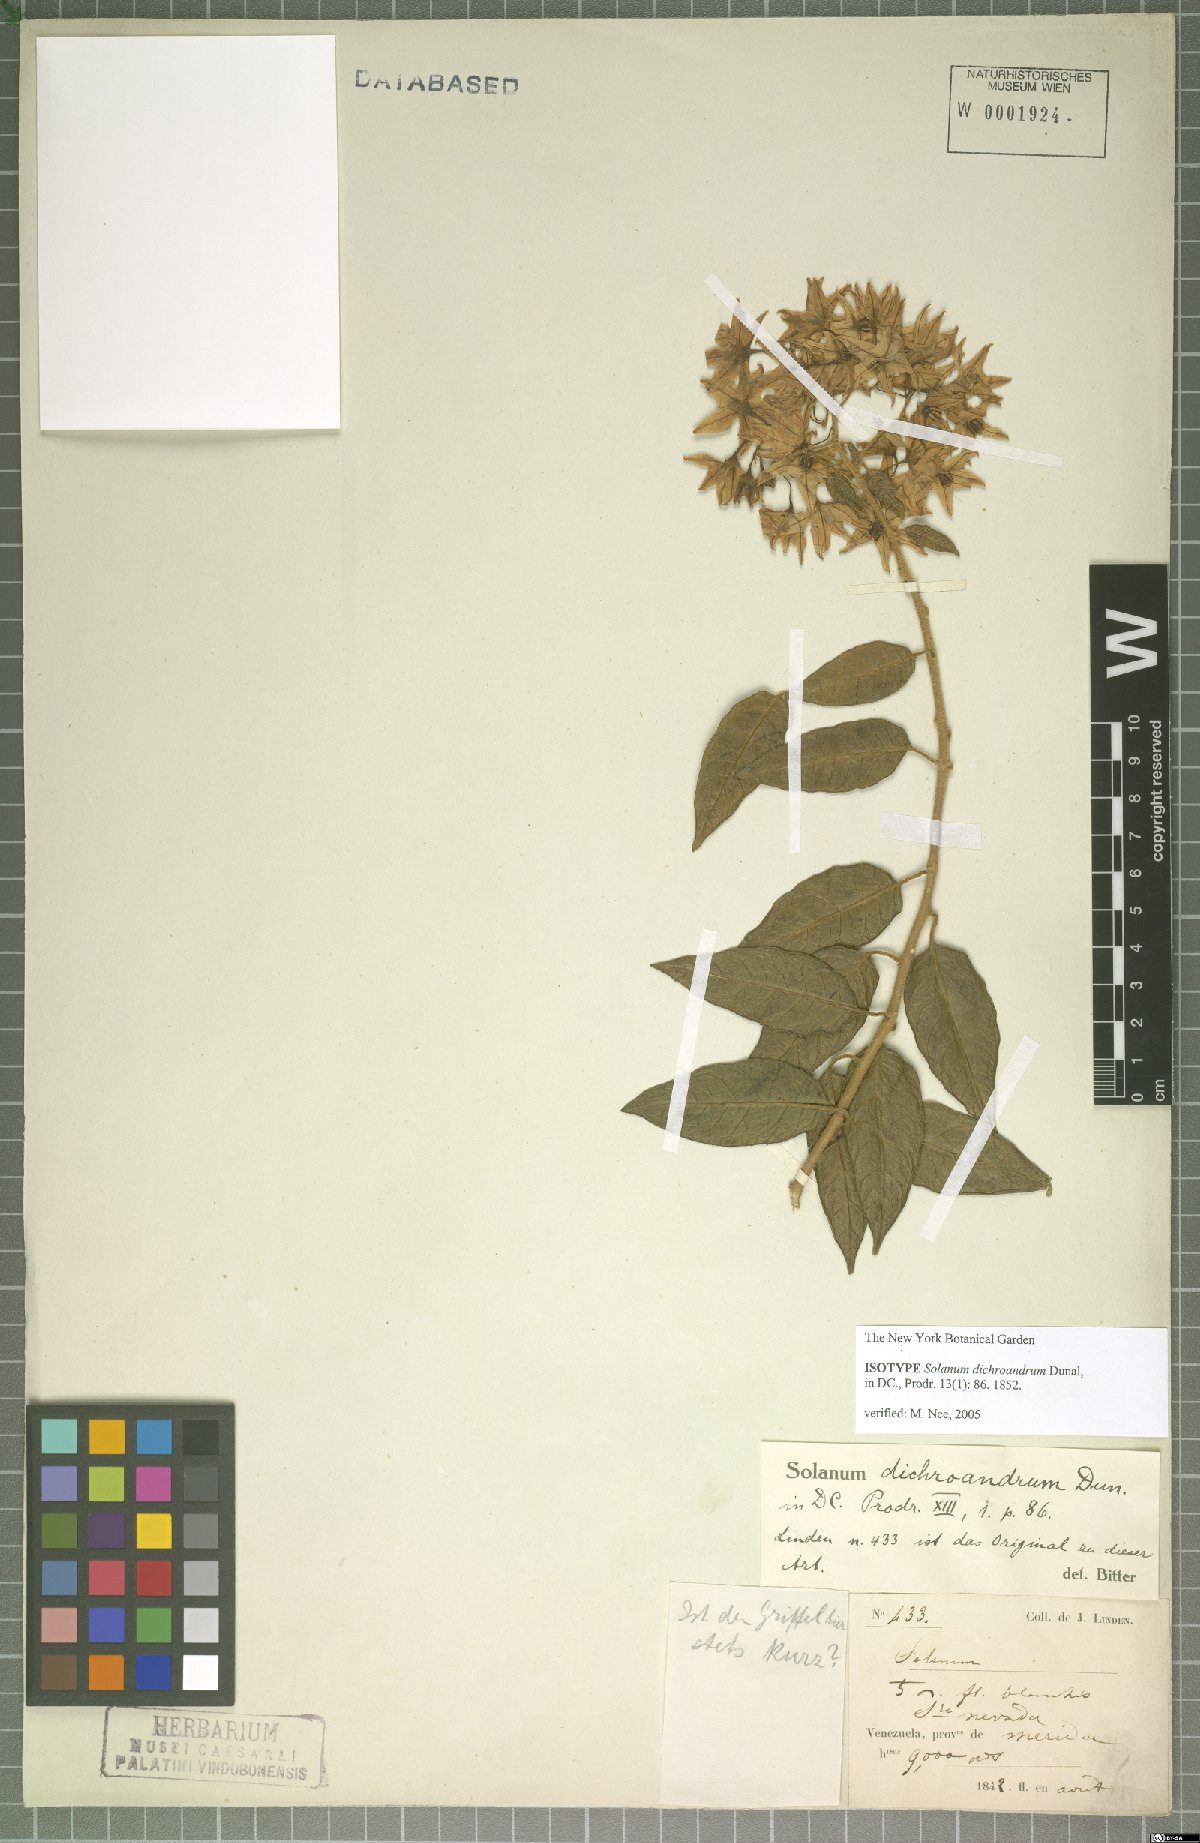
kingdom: Plantae
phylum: Tracheophyta
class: Magnoliopsida
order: Solanales
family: Solanaceae
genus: Solanum
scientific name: Solanum dichroandrum
